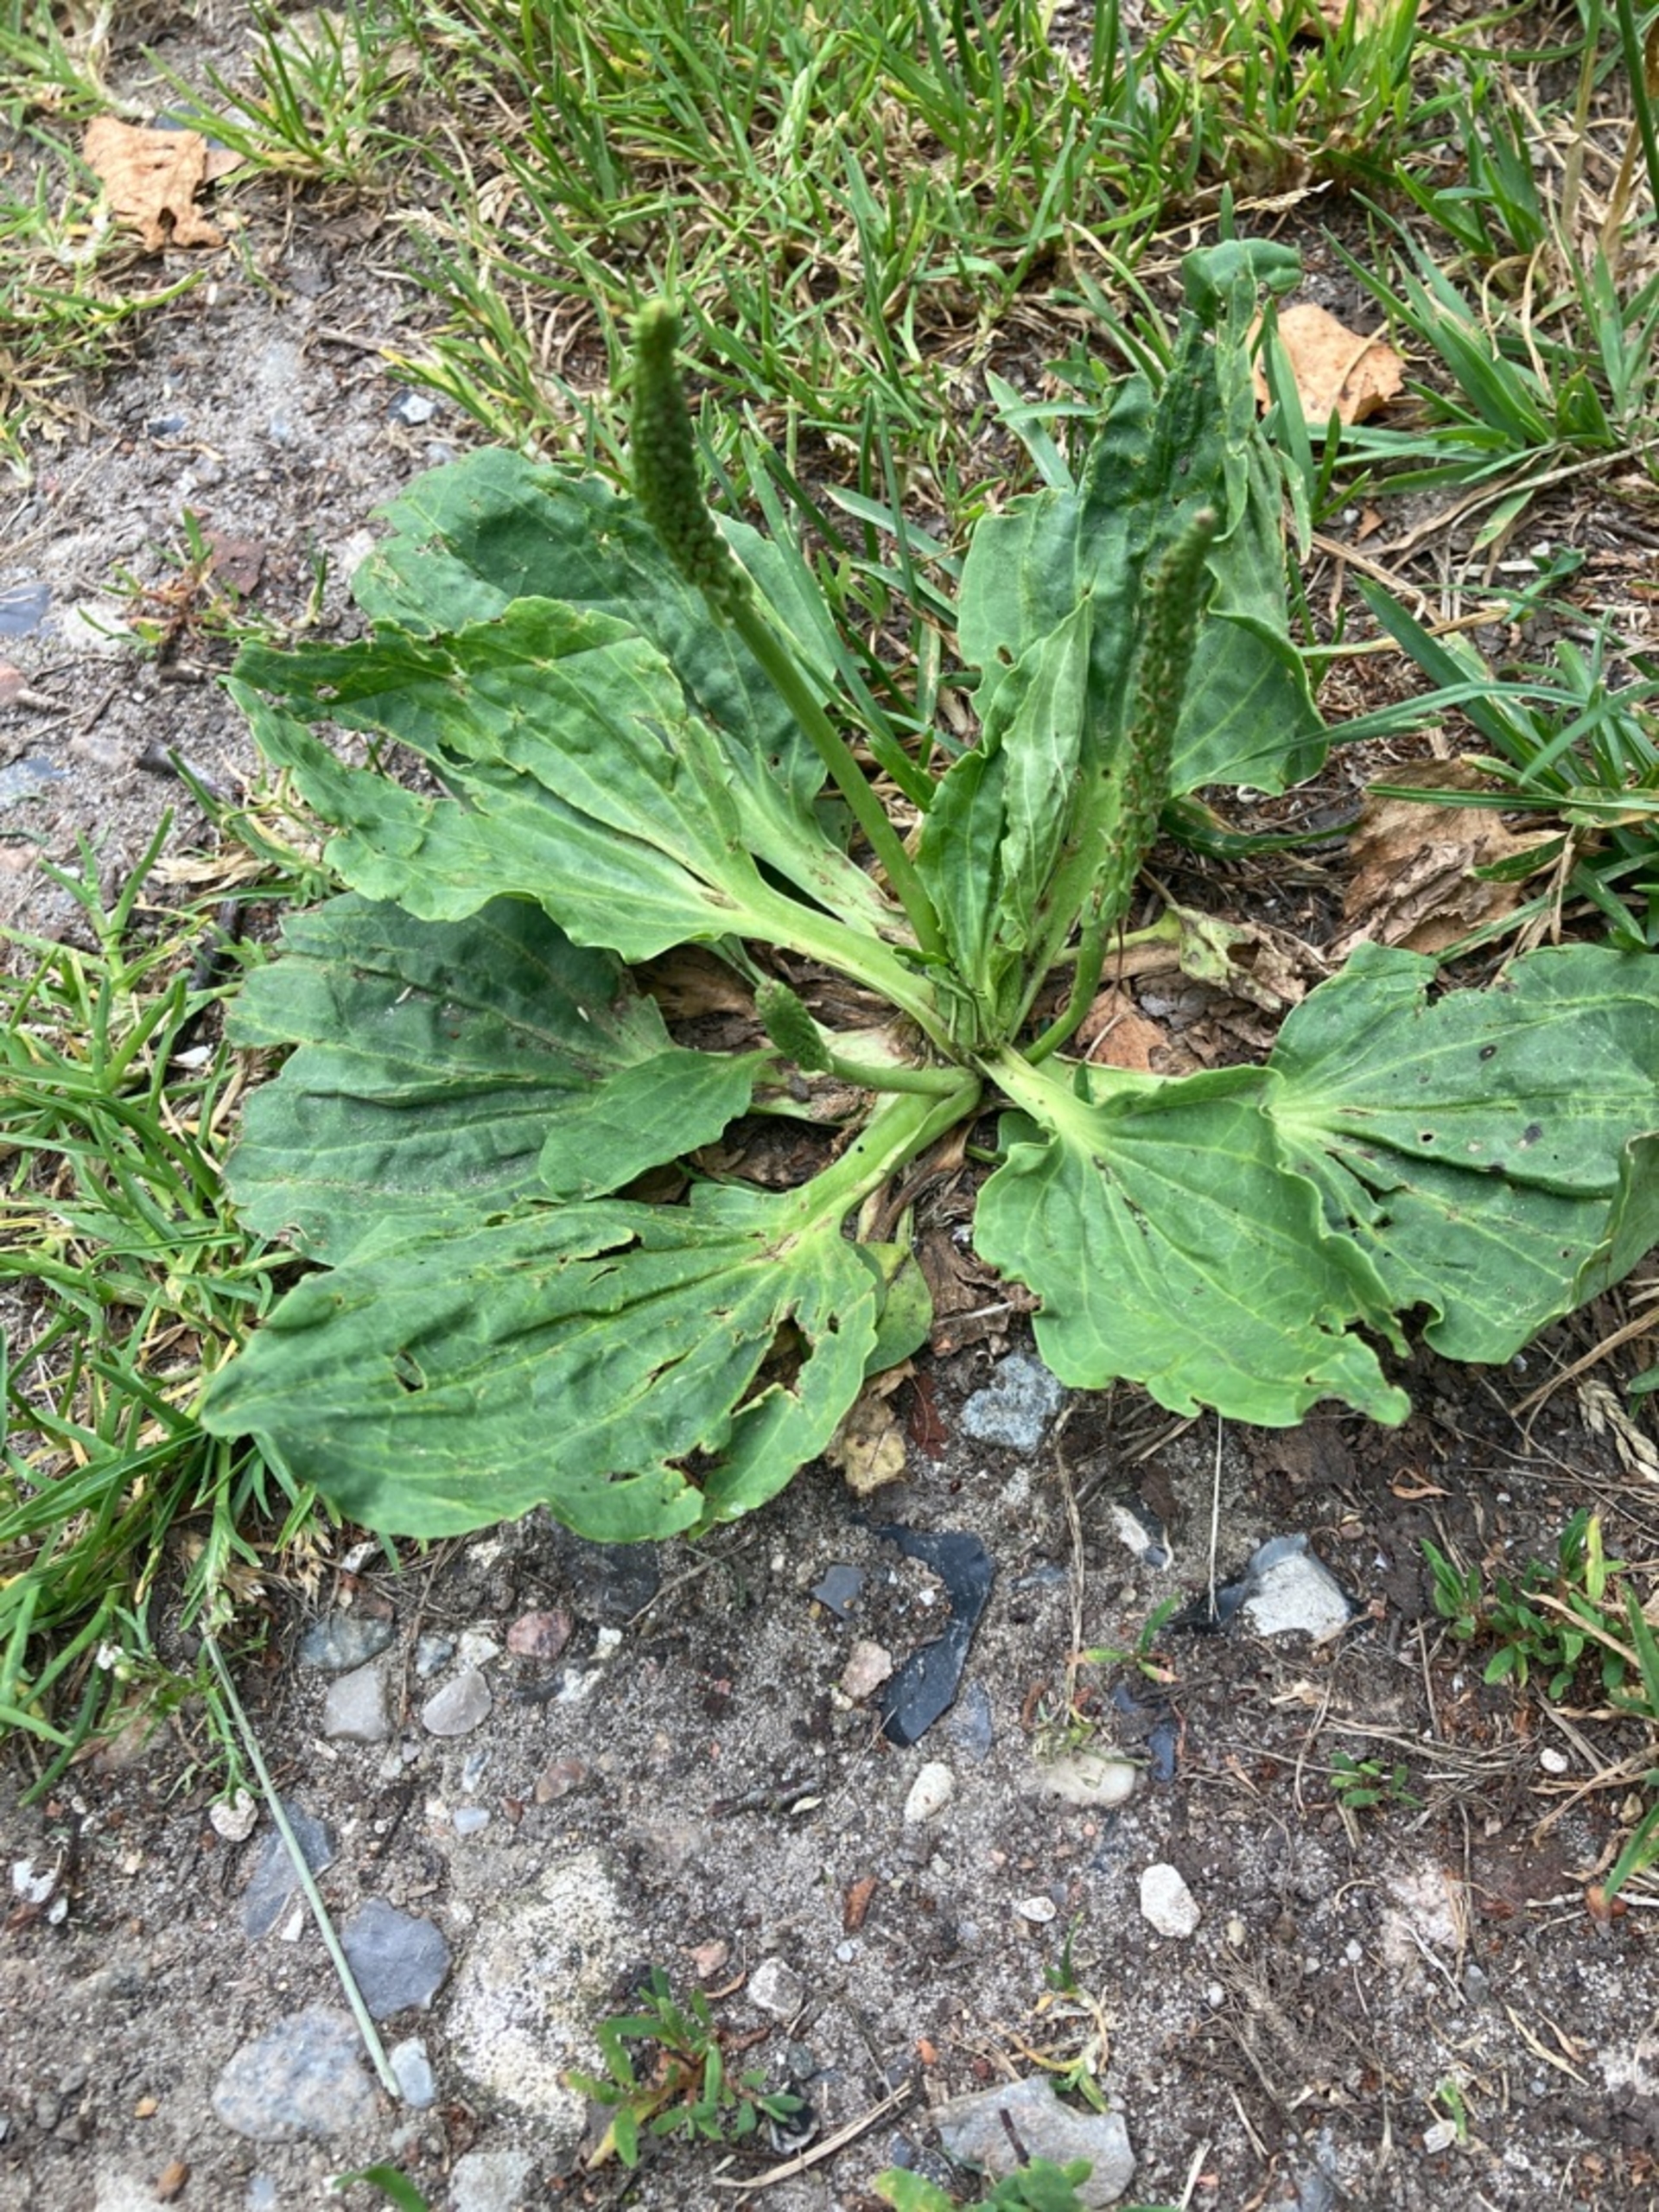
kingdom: Plantae
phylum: Tracheophyta
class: Magnoliopsida
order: Lamiales
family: Plantaginaceae
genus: Plantago
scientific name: Plantago major
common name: Glat vejbred (underart)
